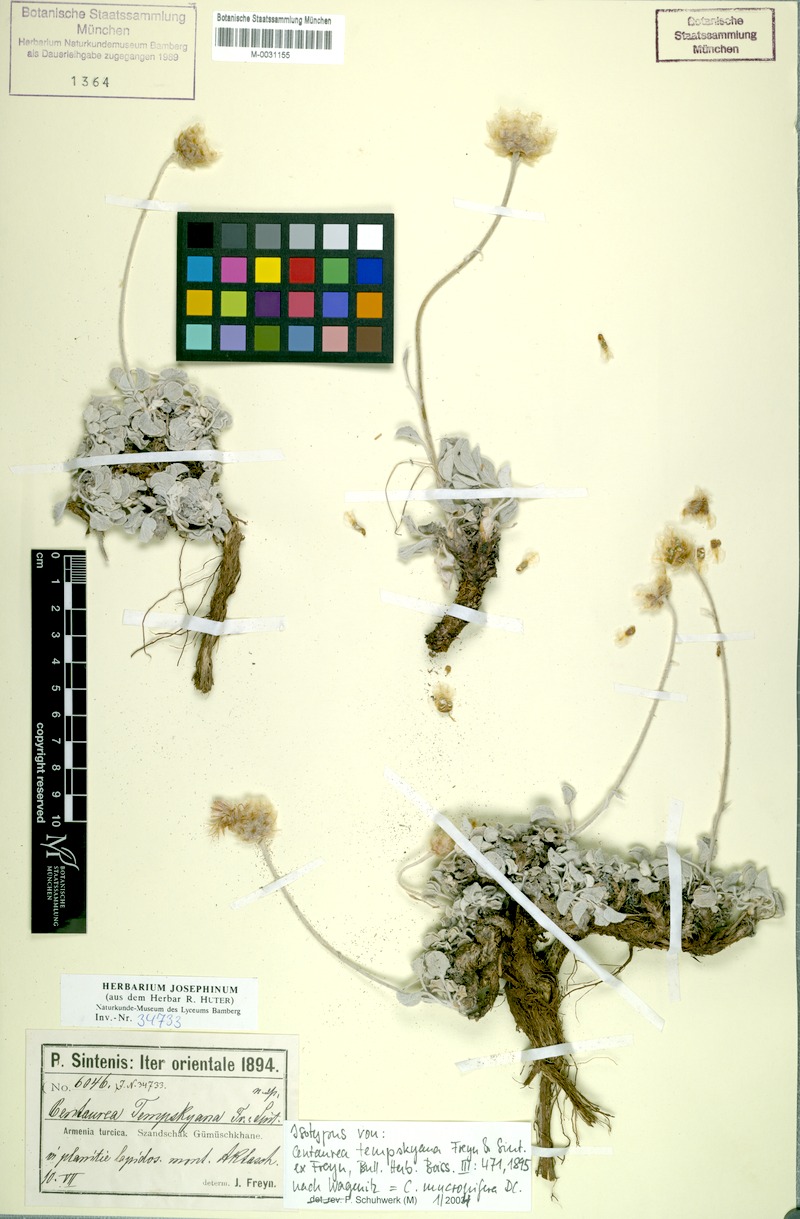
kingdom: Plantae
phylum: Tracheophyta
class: Magnoliopsida
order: Asterales
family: Asteraceae
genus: Psephellus
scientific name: Psephellus mucronifer
